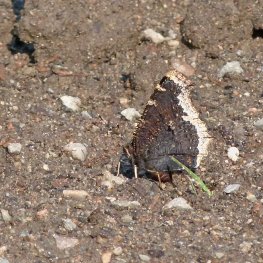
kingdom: Animalia
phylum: Arthropoda
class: Insecta
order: Lepidoptera
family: Nymphalidae
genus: Nymphalis
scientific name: Nymphalis antiopa
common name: Mourning Cloak
